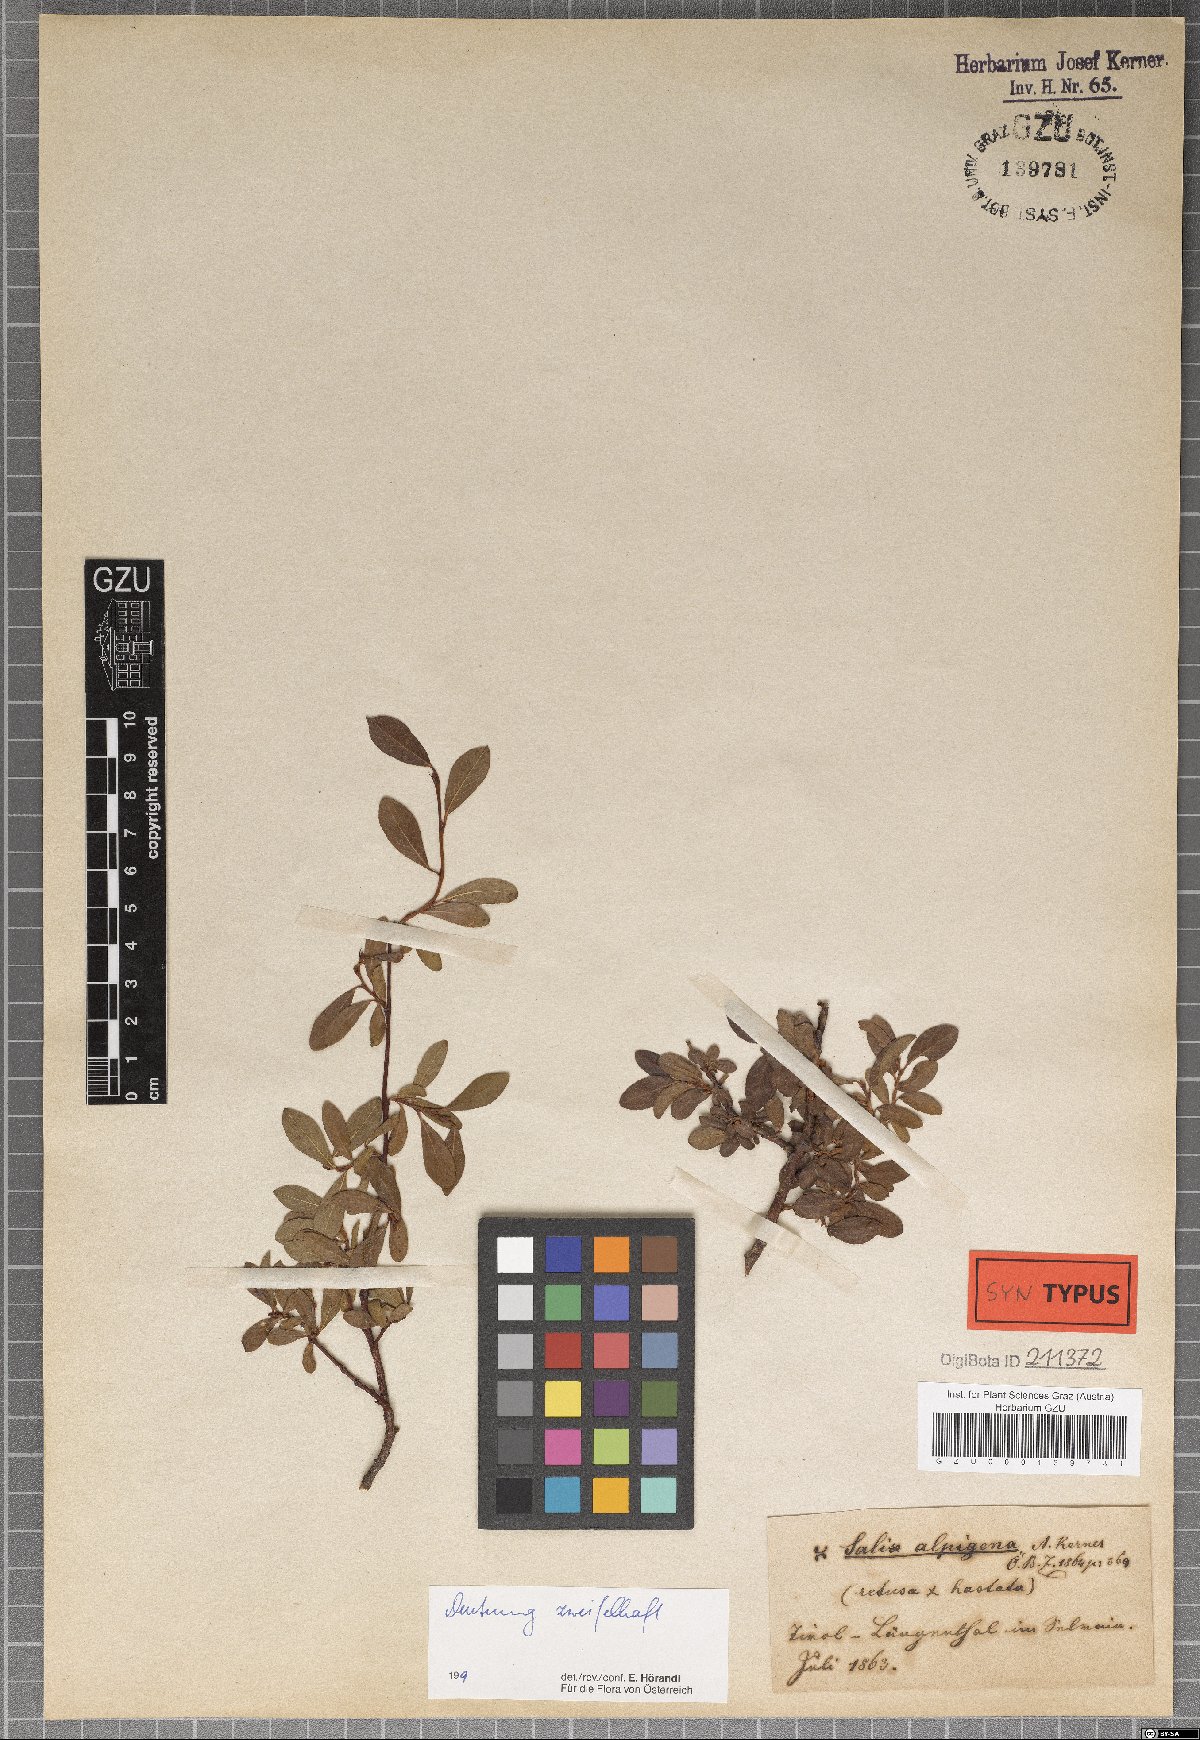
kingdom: Plantae
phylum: Tracheophyta
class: Magnoliopsida
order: Malpighiales
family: Salicaceae
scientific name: Salicaceae
